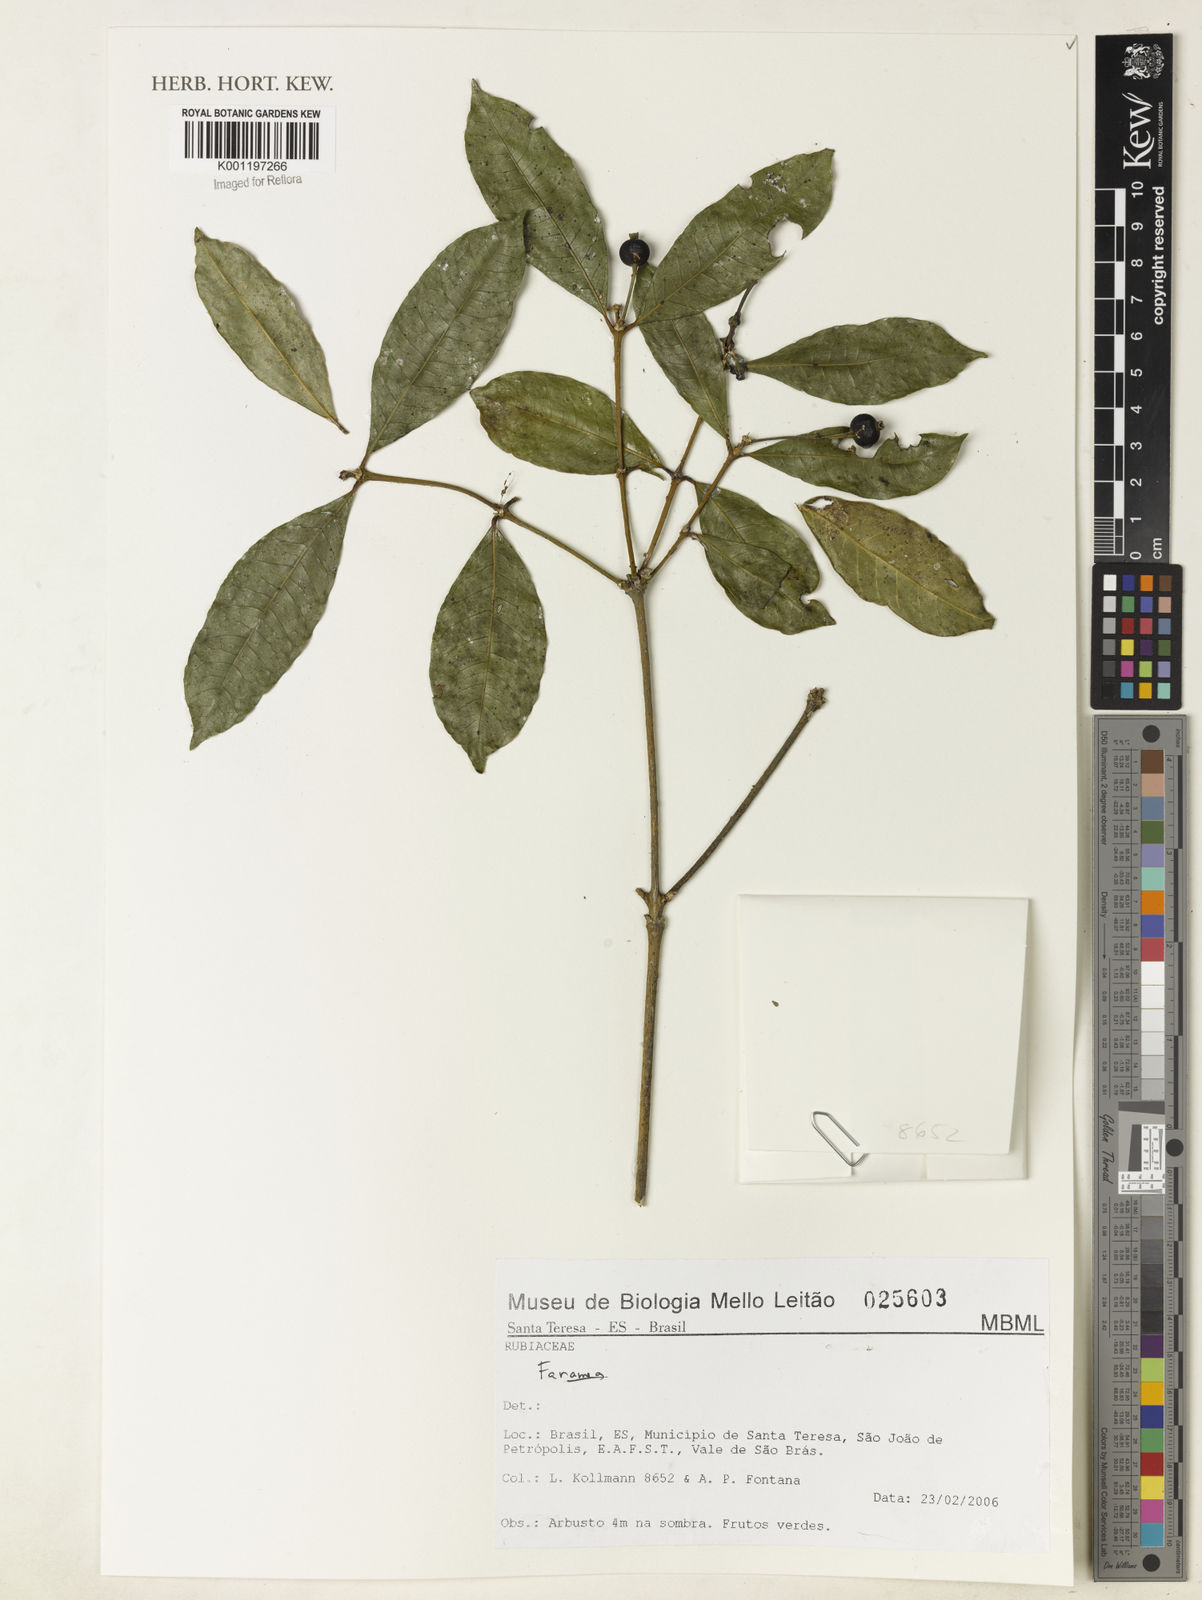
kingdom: Plantae
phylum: Tracheophyta
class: Magnoliopsida
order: Gentianales
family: Rubiaceae
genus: Faramea
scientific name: Faramea
